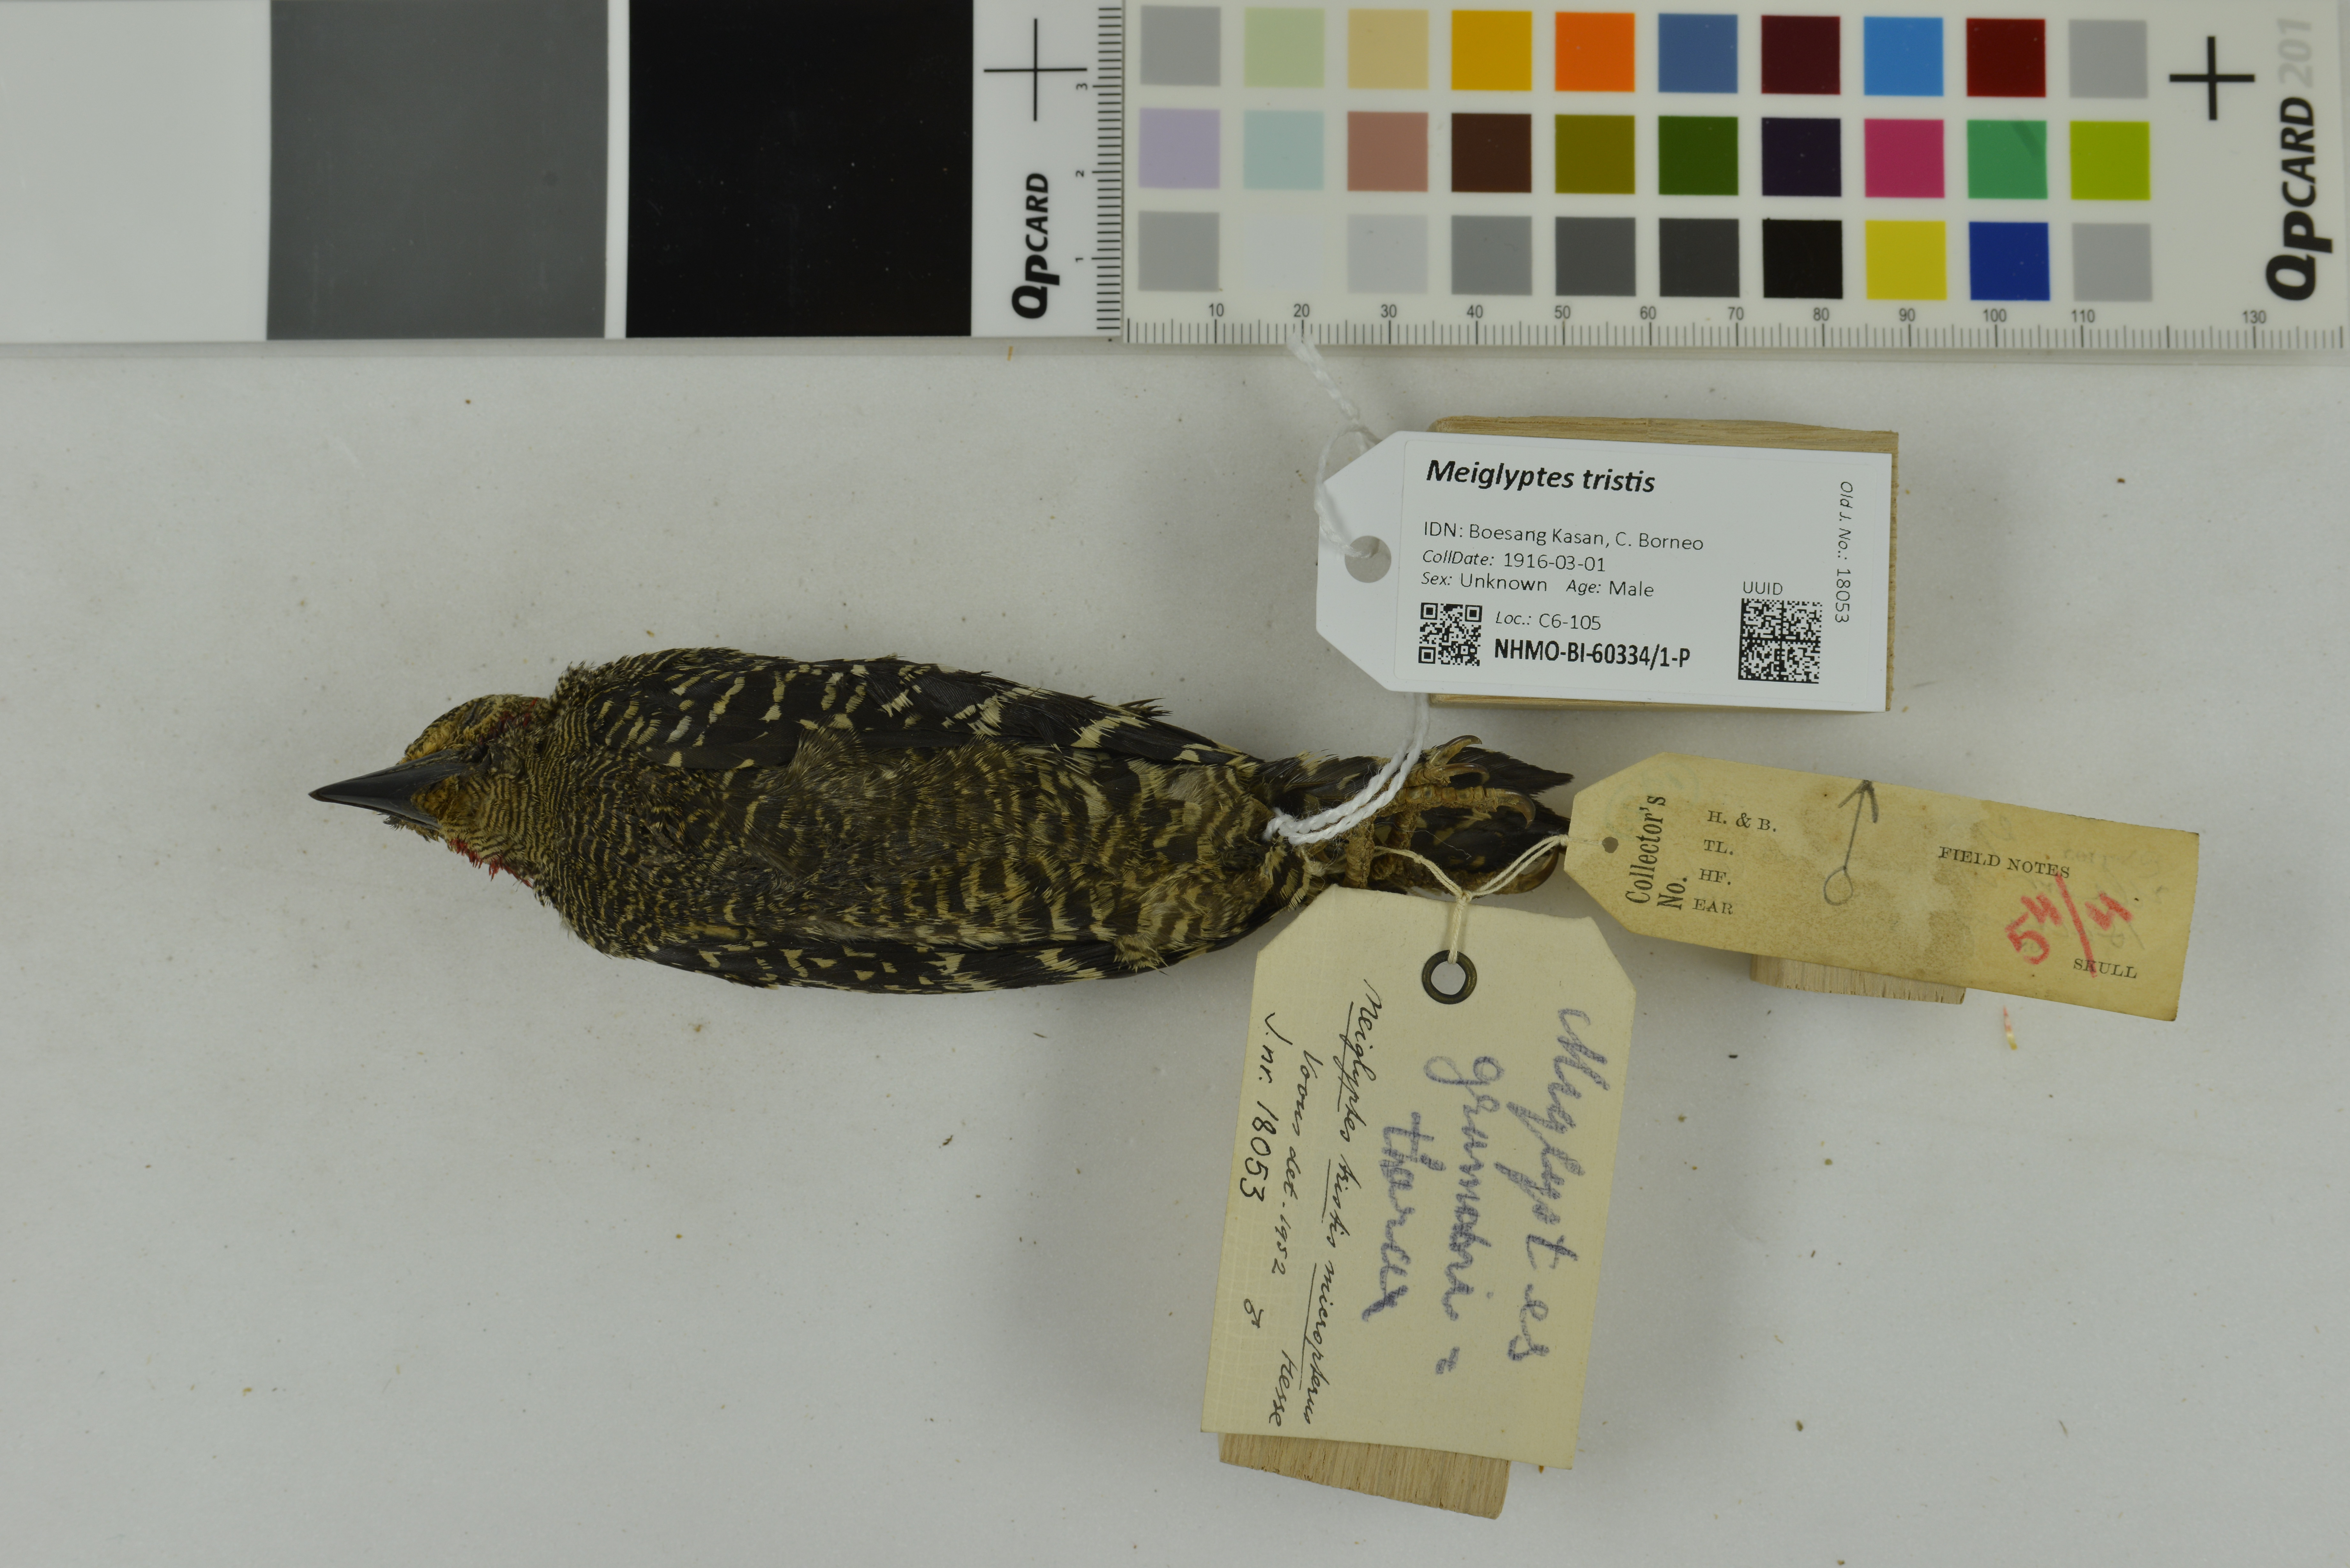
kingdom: Animalia
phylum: Chordata
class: Aves
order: Piciformes
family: Picidae
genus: Meiglyptes
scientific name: Meiglyptes tristis
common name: Buff-rumped woodpecker
